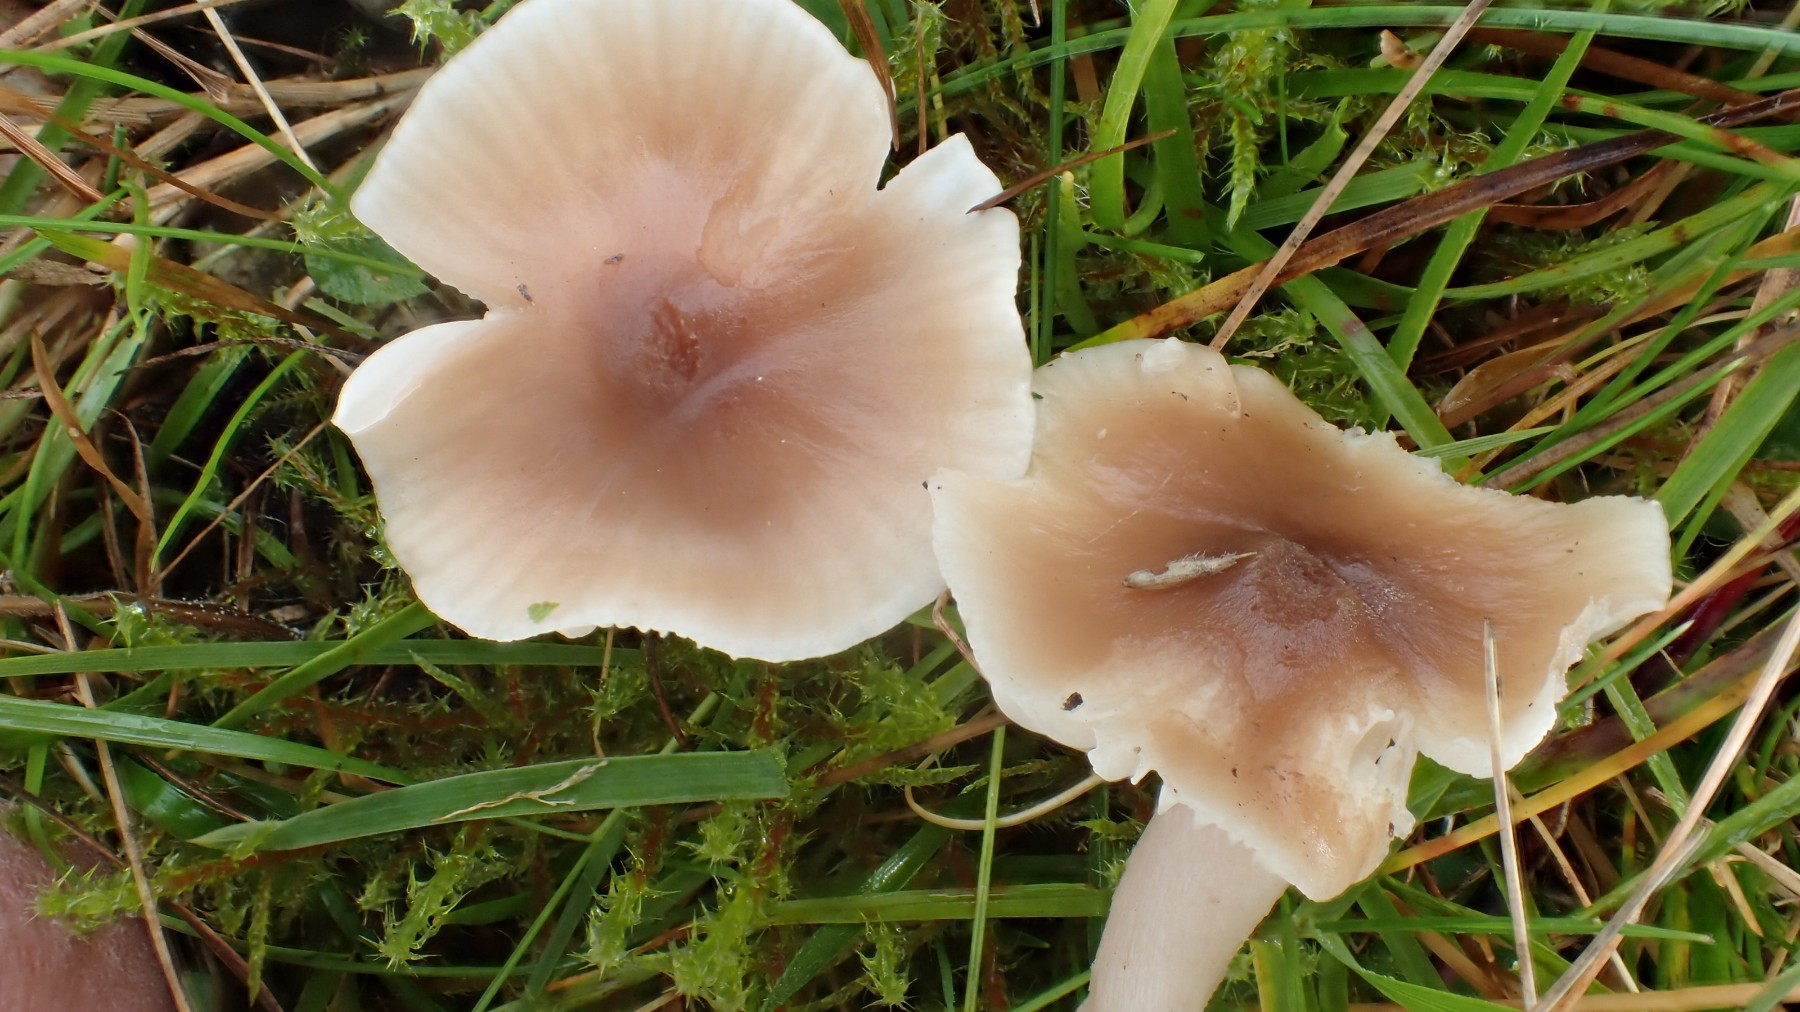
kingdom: Fungi
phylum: Basidiomycota
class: Agaricomycetes
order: Agaricales
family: Hygrophoraceae
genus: Cuphophyllus
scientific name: Cuphophyllus colemannianus
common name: rødbrun vokshat
